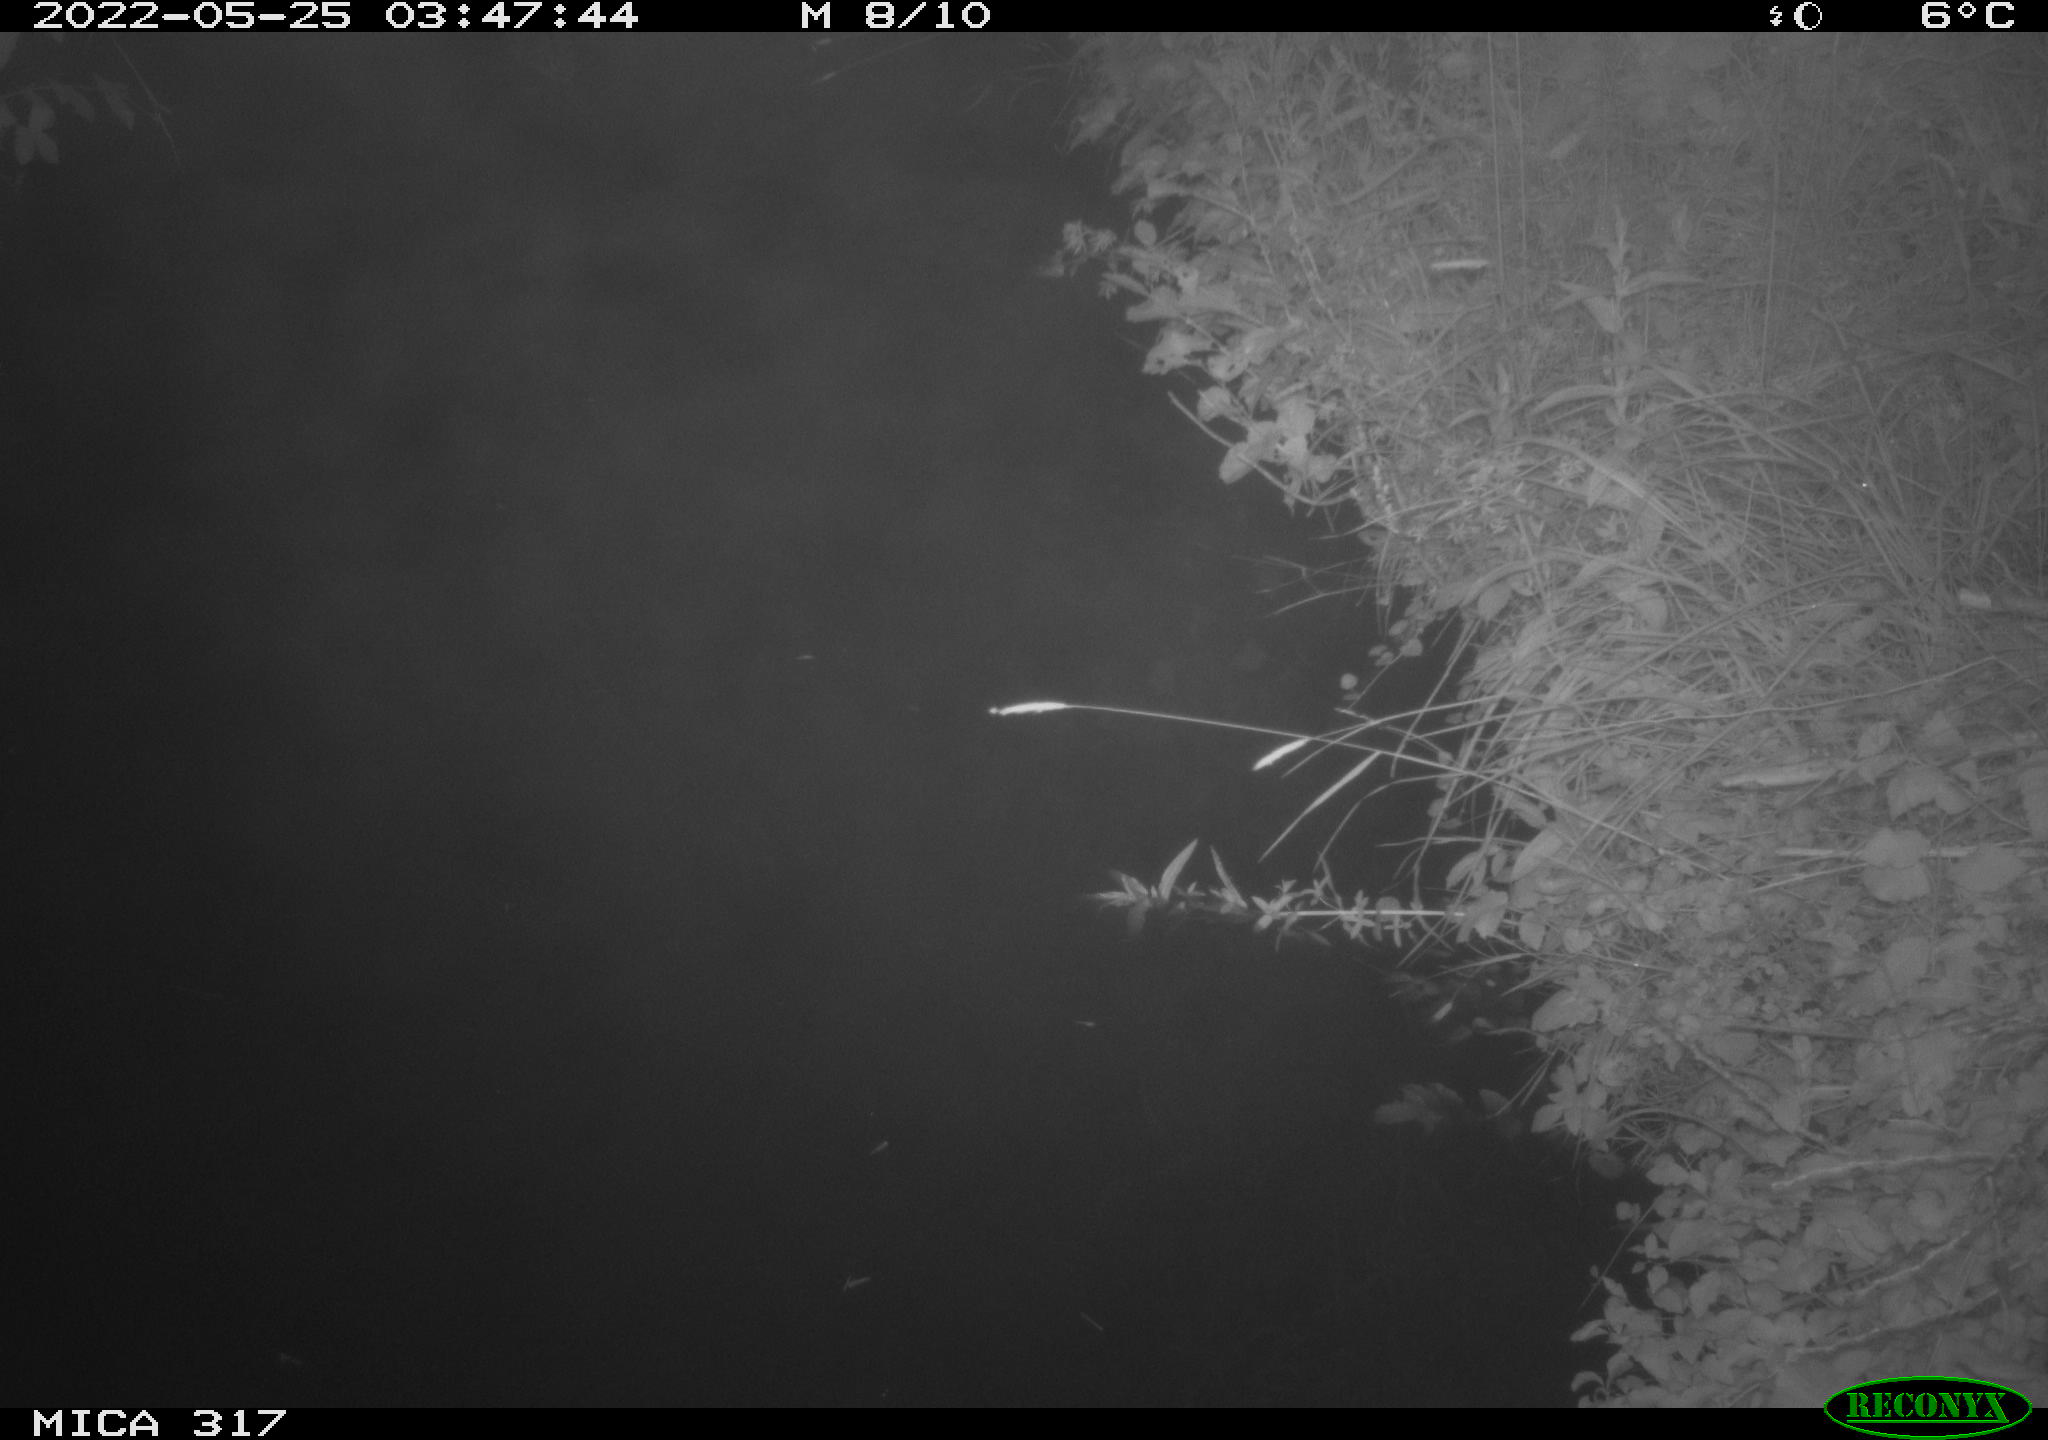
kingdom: Animalia
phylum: Chordata
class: Aves
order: Anseriformes
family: Anatidae
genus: Anas
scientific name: Anas
